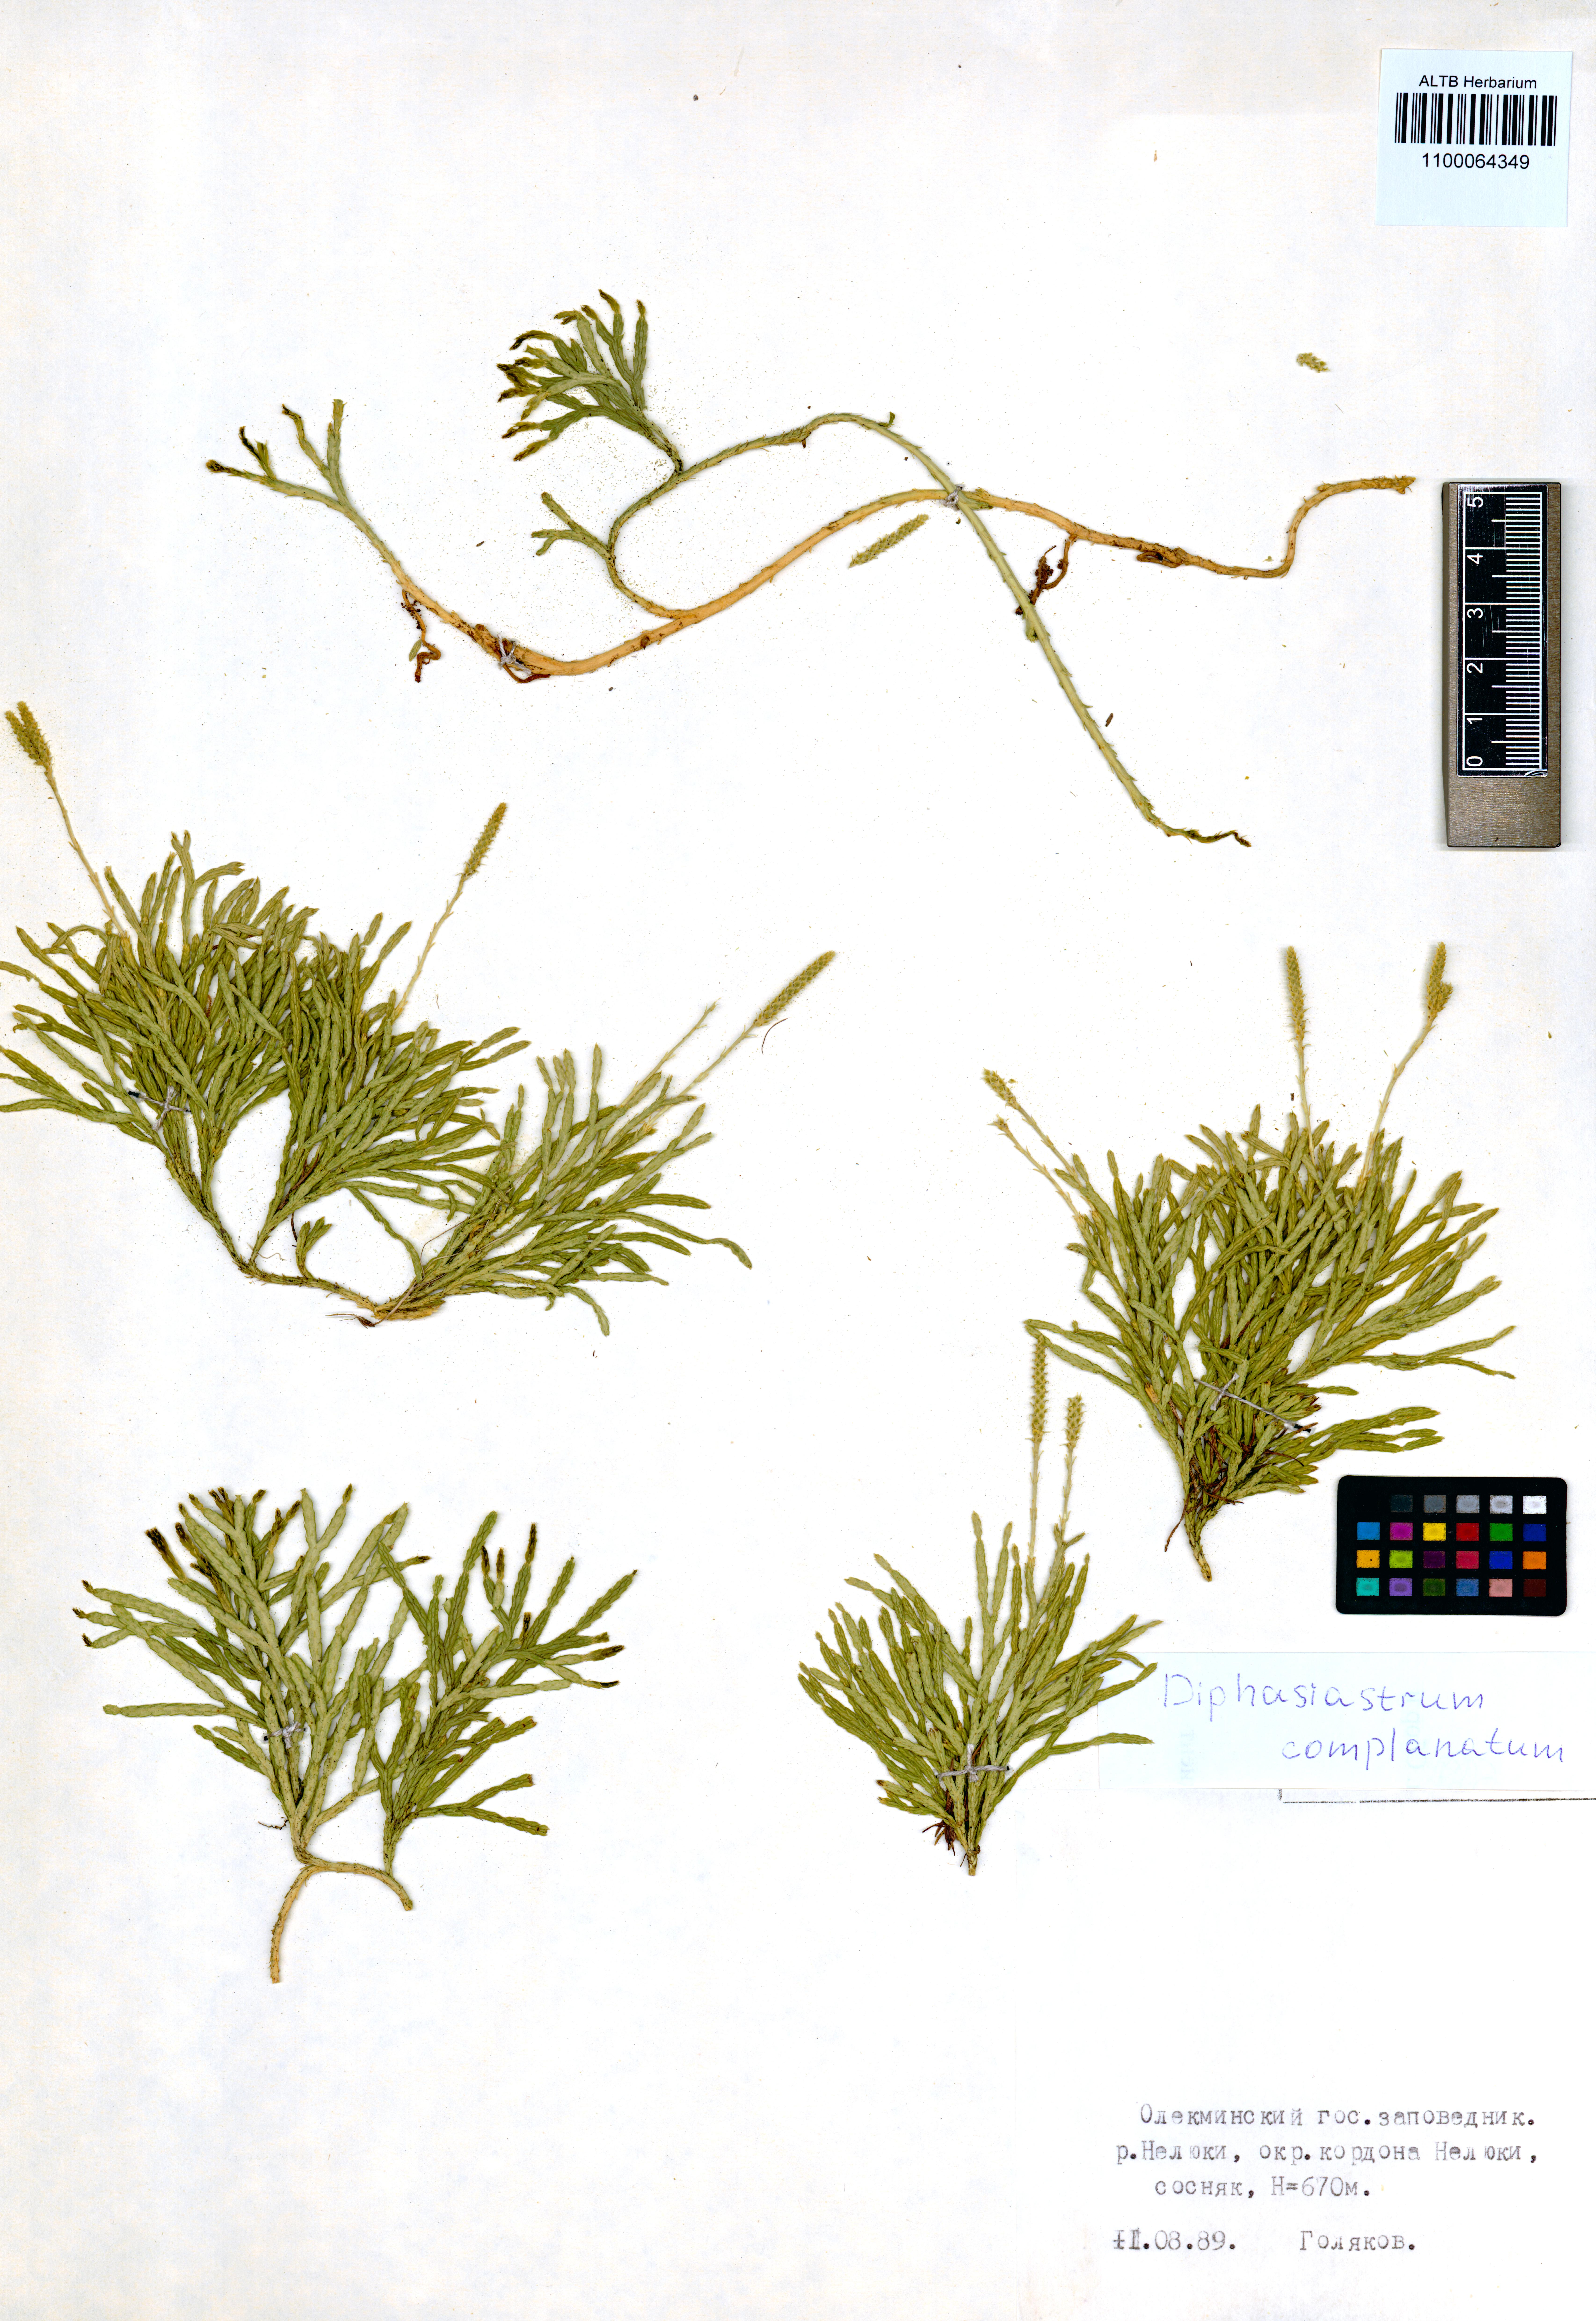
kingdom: Plantae
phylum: Tracheophyta
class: Lycopodiopsida
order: Lycopodiales
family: Lycopodiaceae
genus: Diphasiastrum
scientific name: Diphasiastrum complanatum
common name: Northern running-pine
